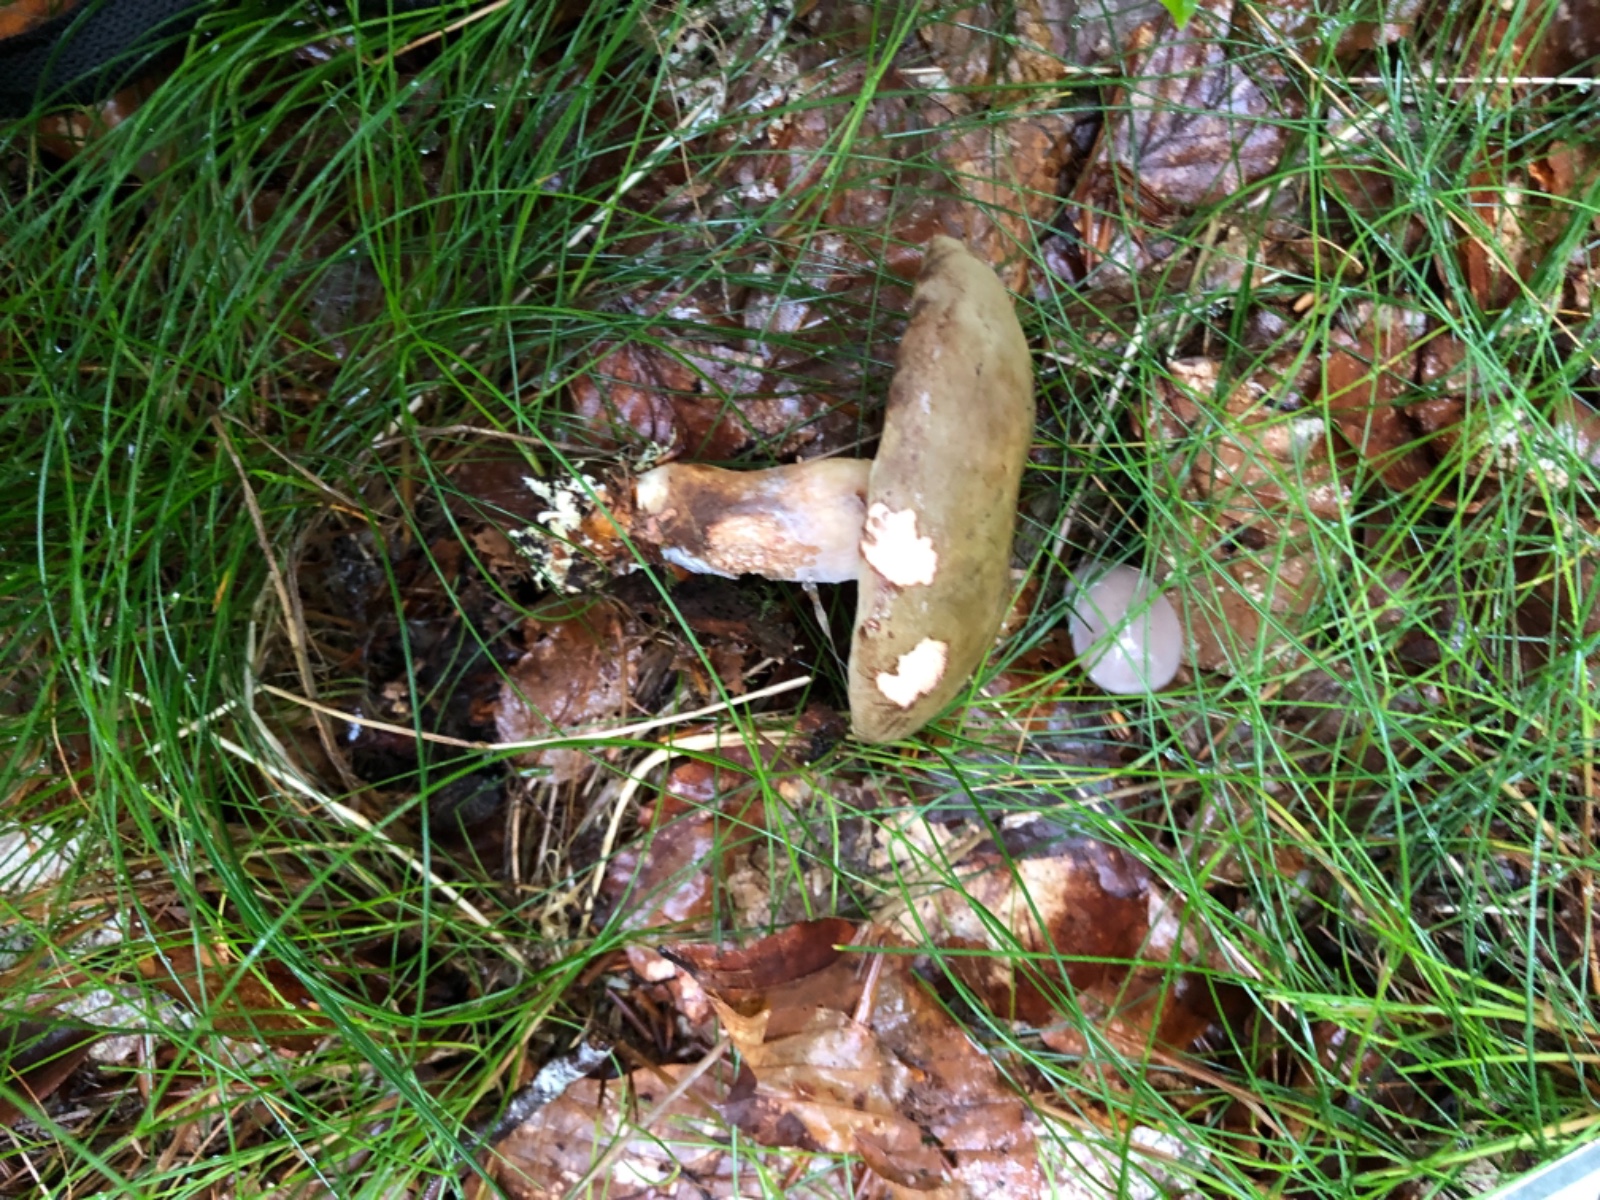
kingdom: Fungi
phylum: Basidiomycota
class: Agaricomycetes
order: Boletales
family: Boletaceae
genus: Xerocomus
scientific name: Xerocomus
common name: filtrørhat
